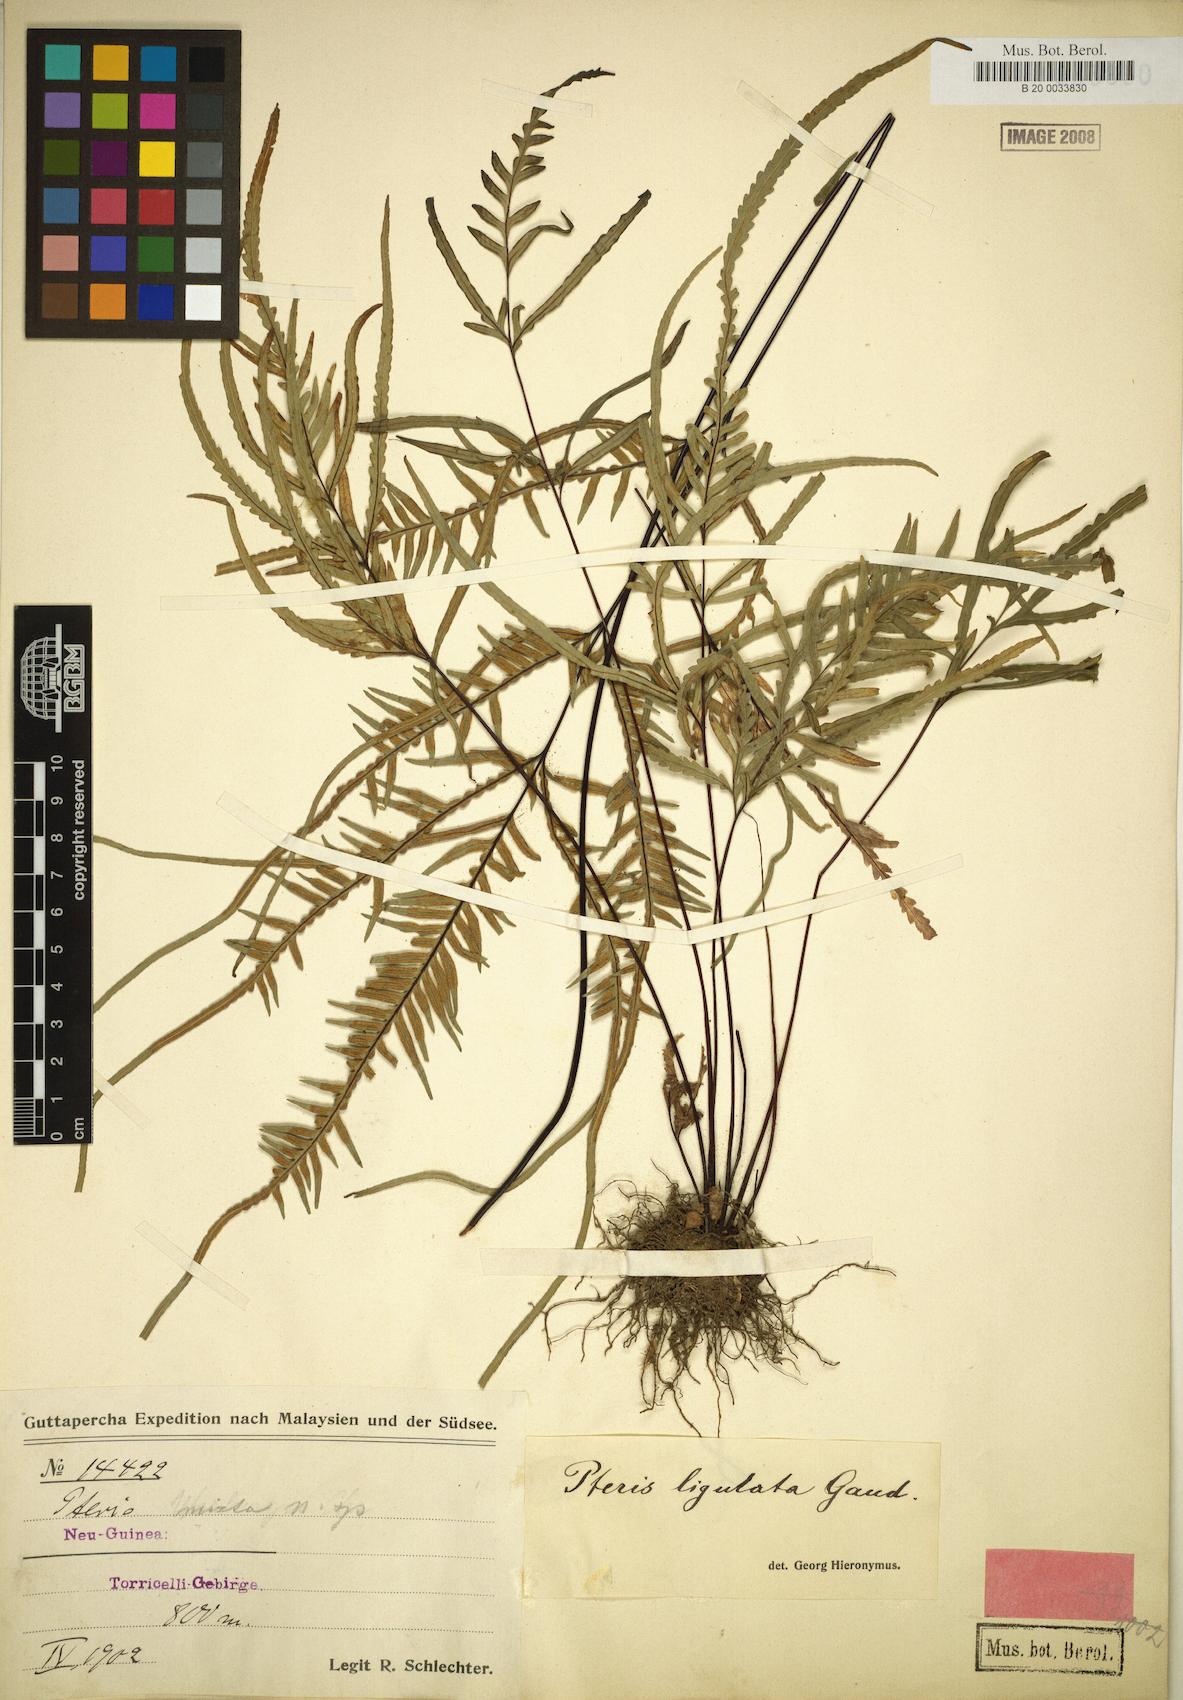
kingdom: Plantae
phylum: Tracheophyta
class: Polypodiopsida
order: Polypodiales
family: Pteridaceae
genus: Pteris
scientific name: Pteris ligulata
